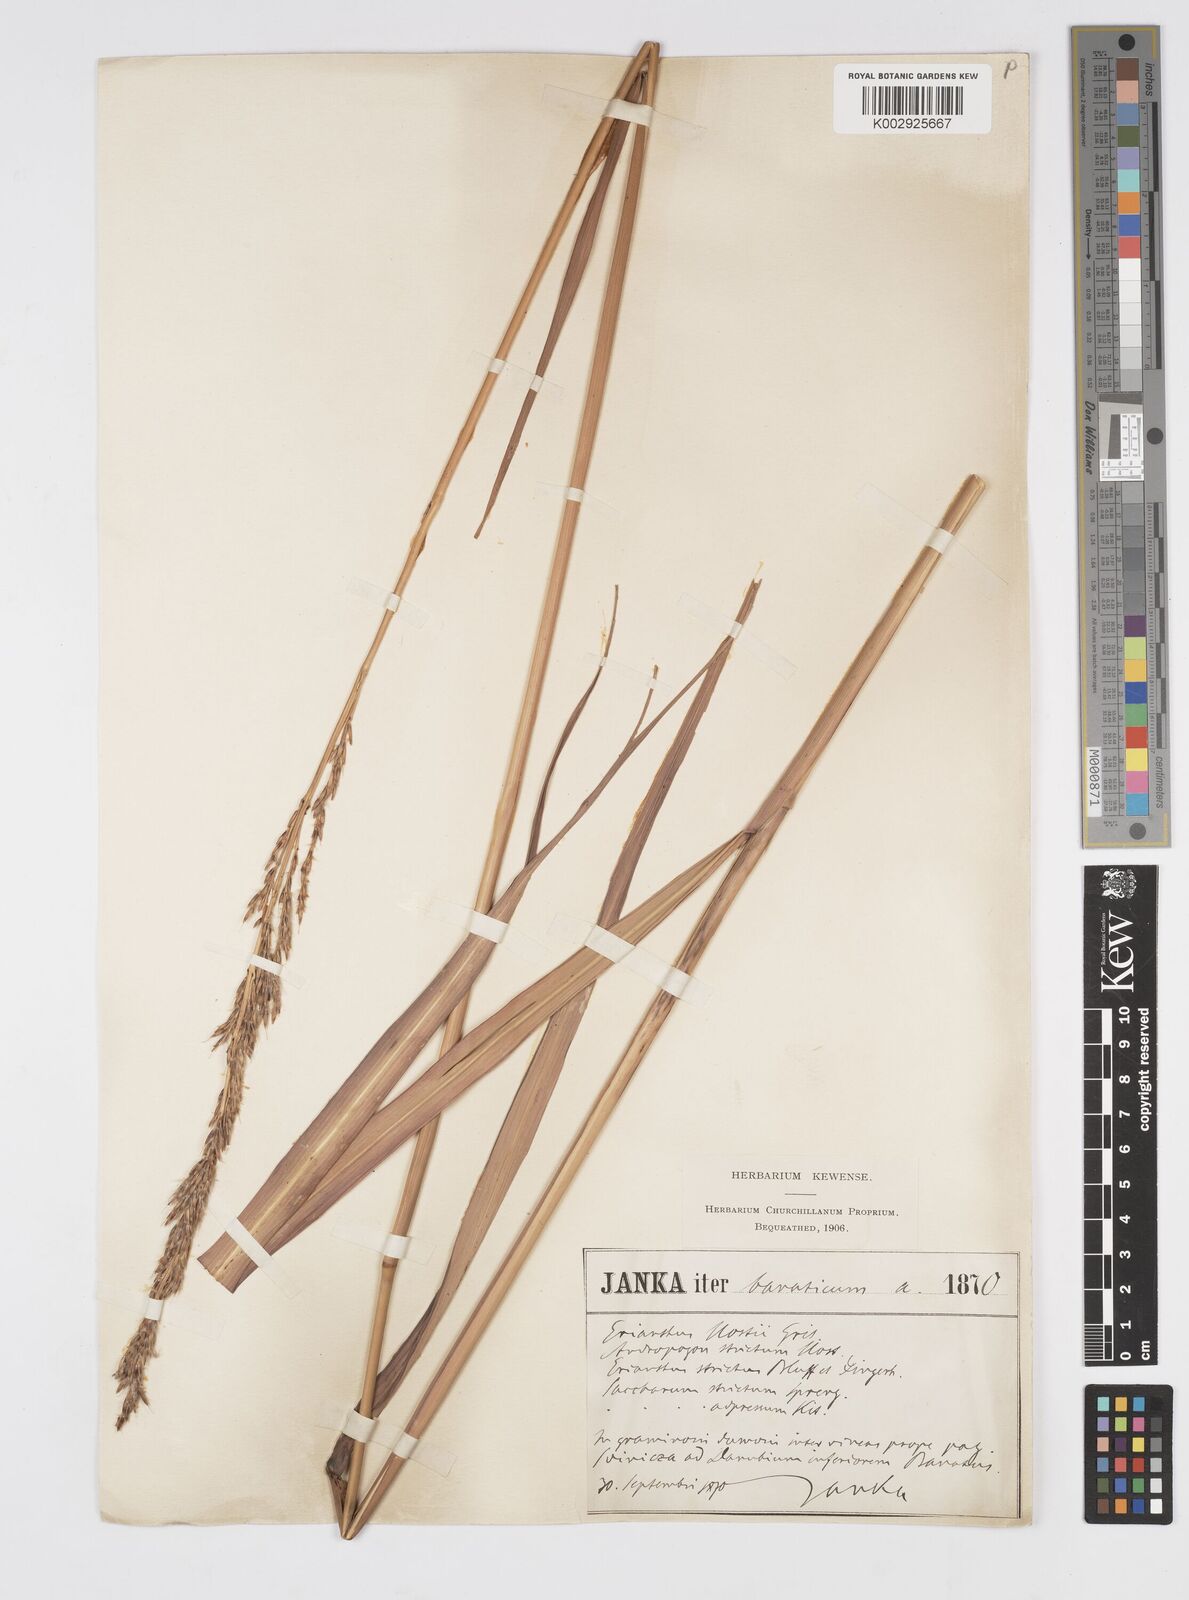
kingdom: Plantae
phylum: Tracheophyta
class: Liliopsida
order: Poales
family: Poaceae
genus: Tripidium
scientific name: Tripidium strictum
